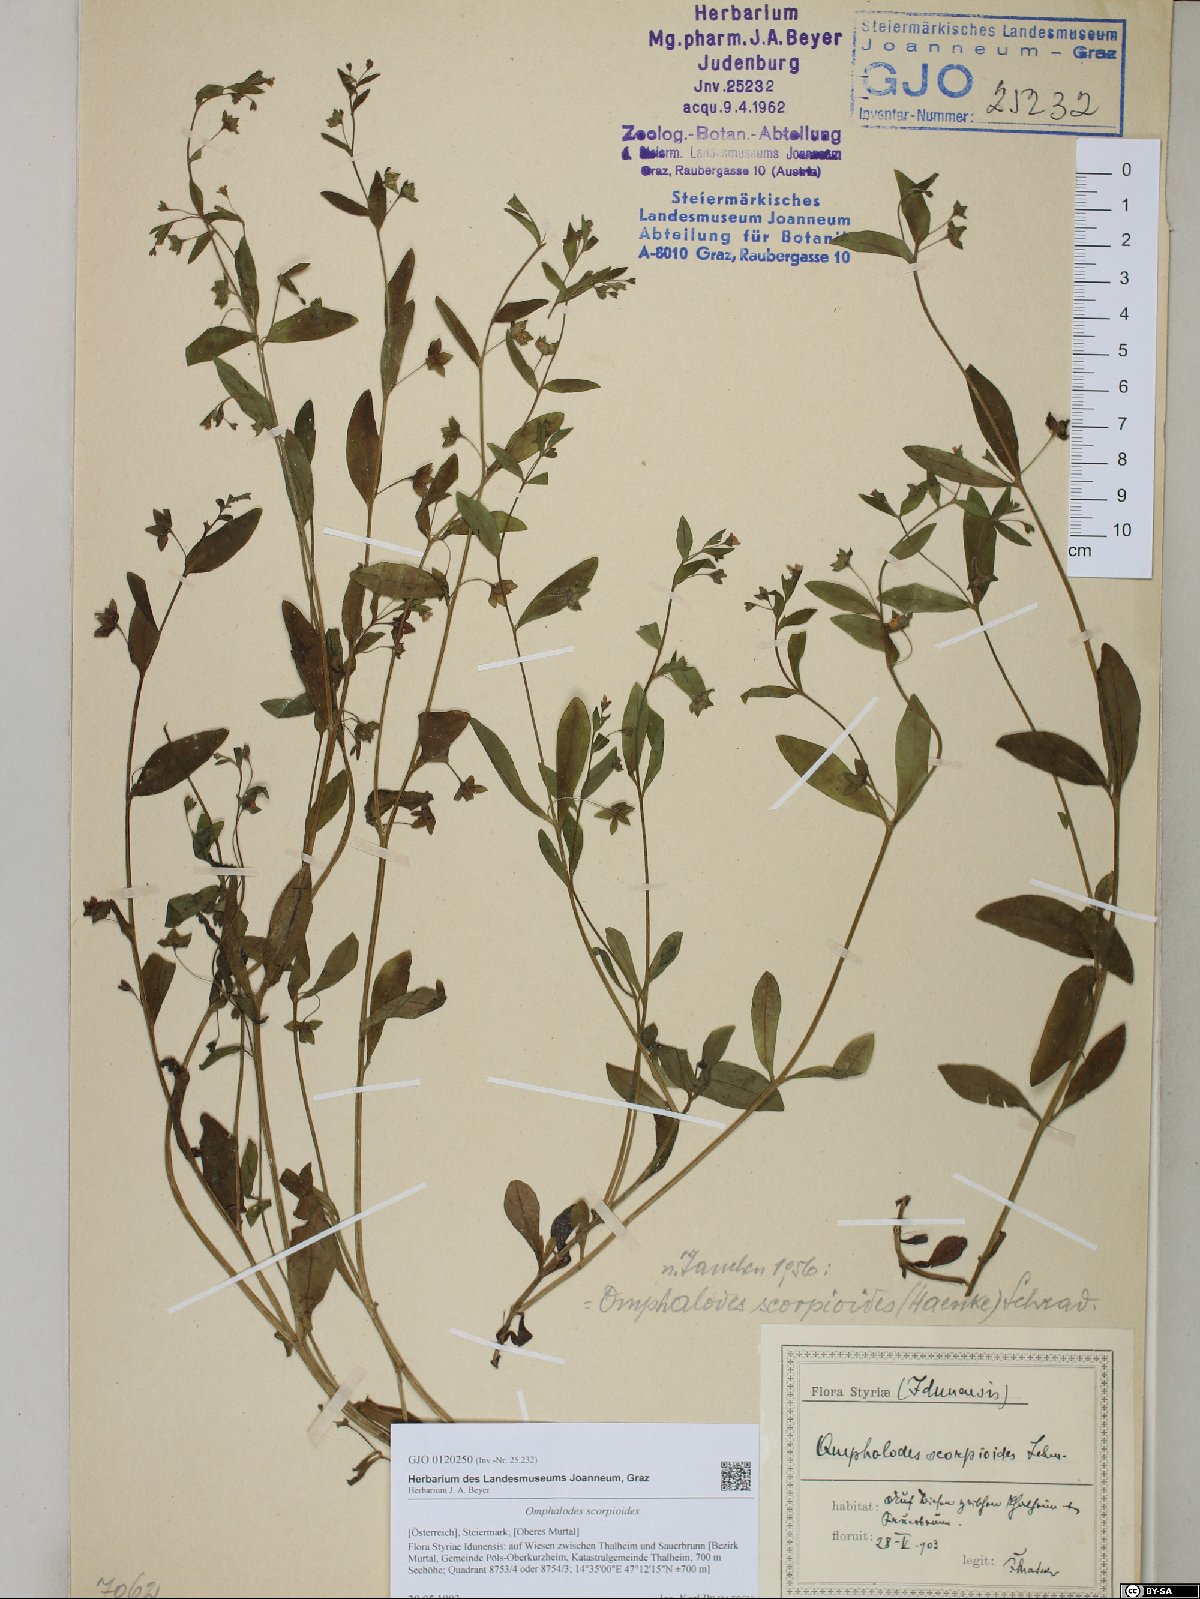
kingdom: Plantae
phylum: Tracheophyta
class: Magnoliopsida
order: Boraginales
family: Boraginaceae
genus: Memoremea
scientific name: Memoremea scorpioides
